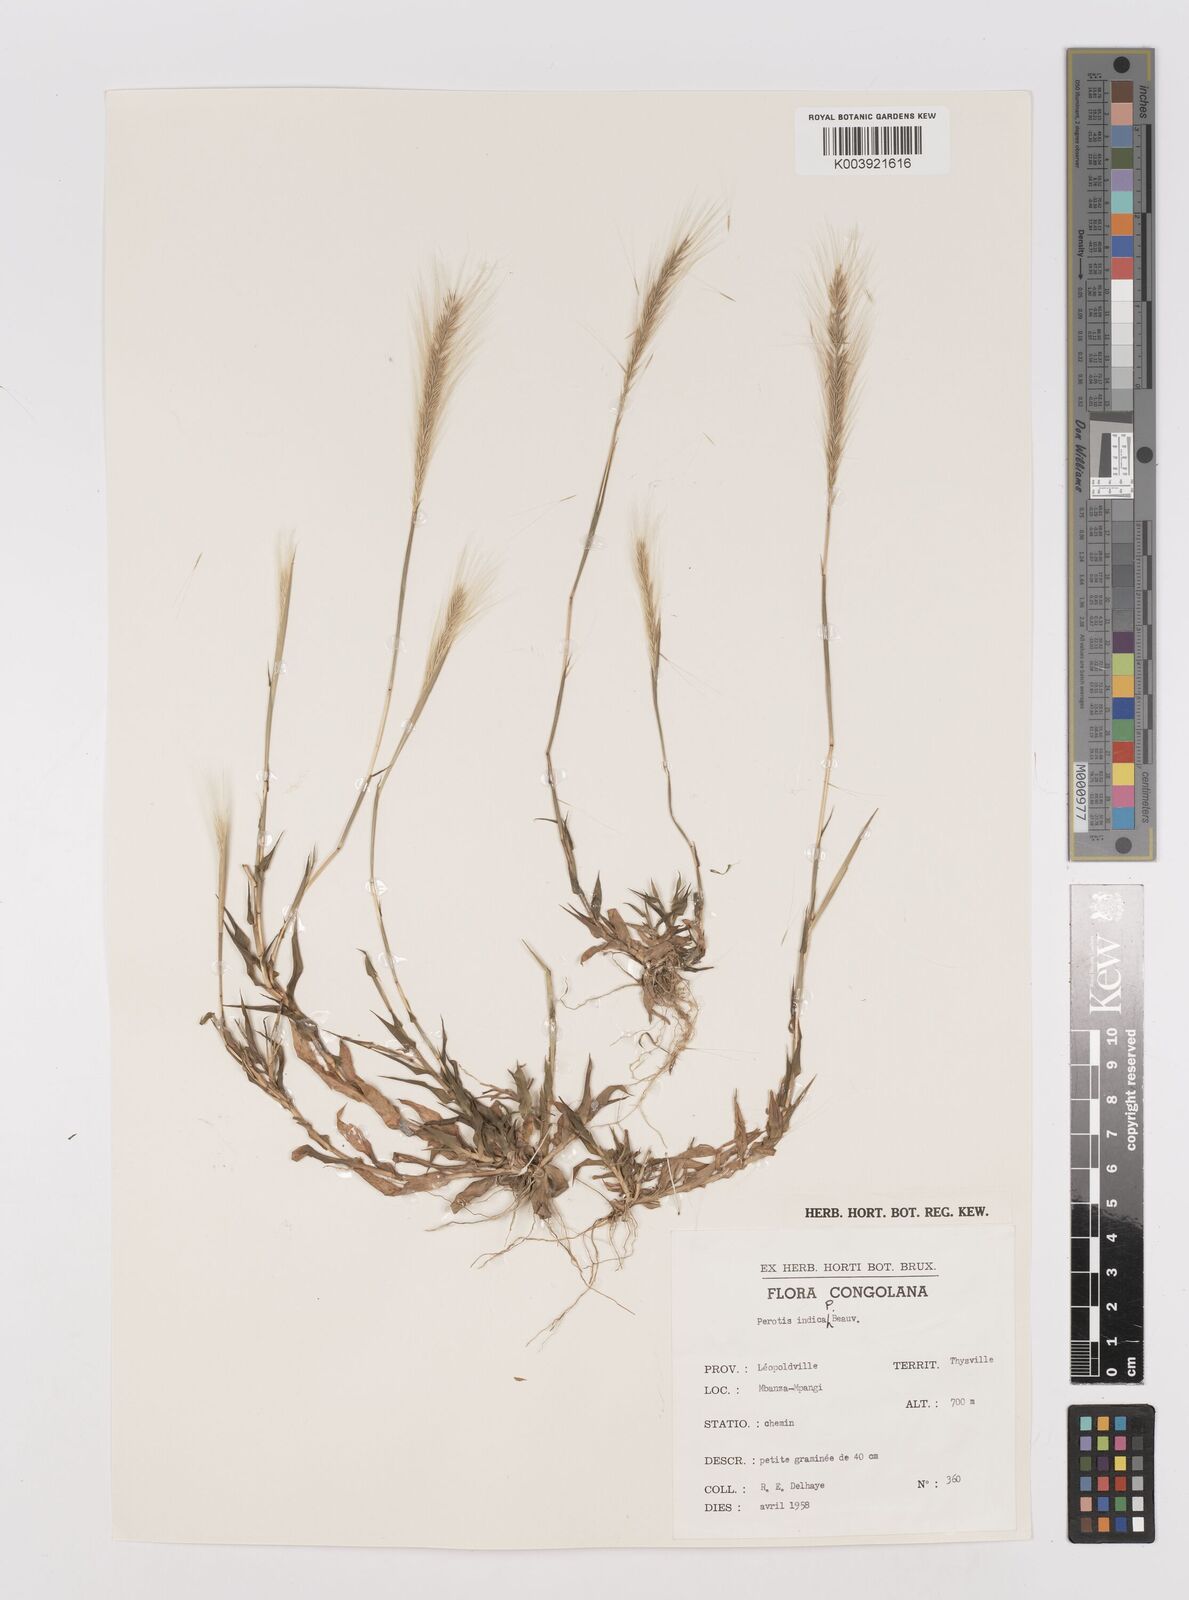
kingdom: Plantae
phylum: Tracheophyta
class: Liliopsida
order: Poales
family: Poaceae
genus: Perotis
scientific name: Perotis vaginata
